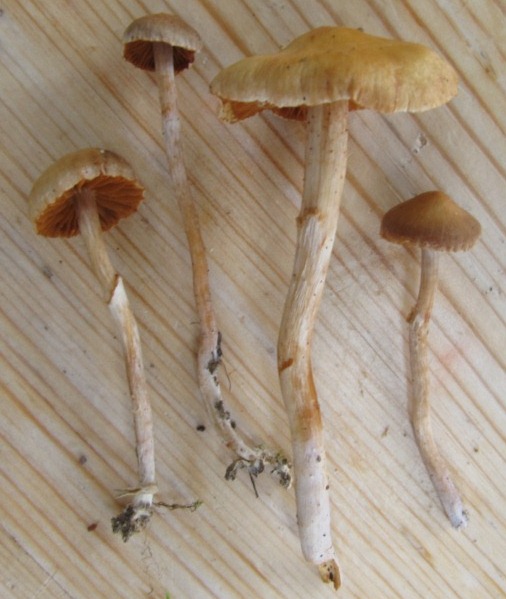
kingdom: Fungi
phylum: Basidiomycota
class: Agaricomycetes
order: Agaricales
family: Cortinariaceae
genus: Cortinarius
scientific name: Cortinarius parvannulatus
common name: krave-slørhat
